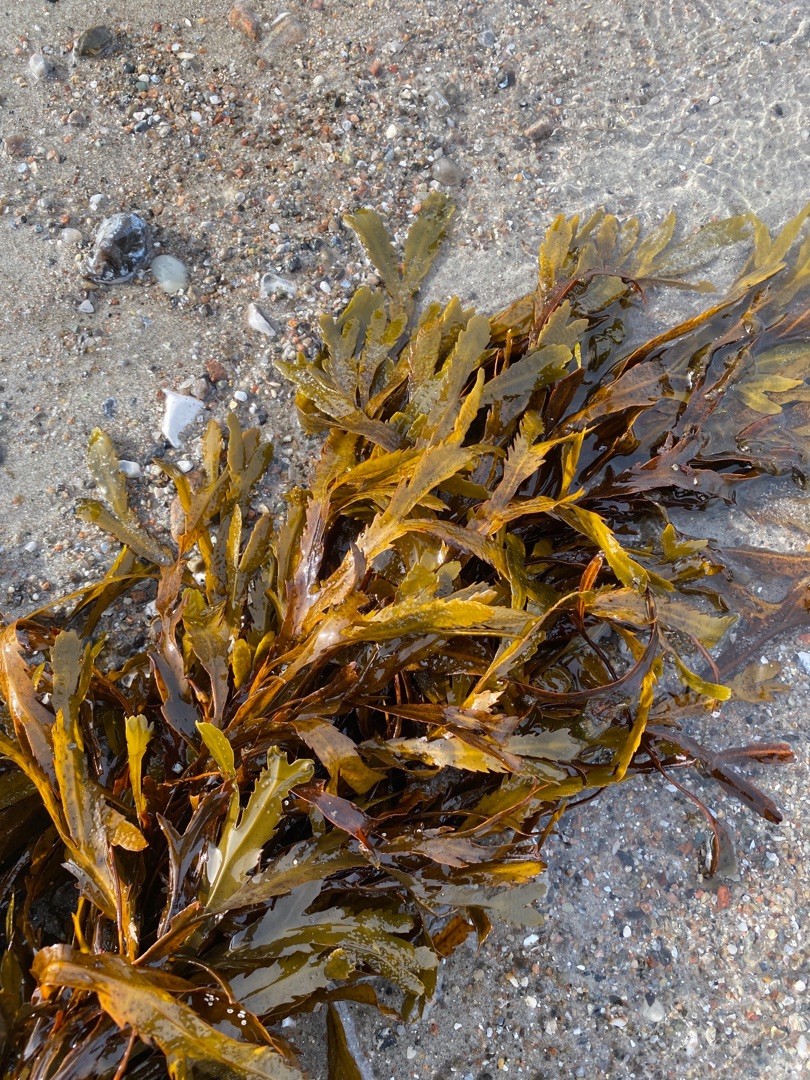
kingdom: Chromista
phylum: Ochrophyta
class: Phaeophyceae
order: Fucales
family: Fucaceae
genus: Fucus
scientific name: Fucus serratus
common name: Savtang
